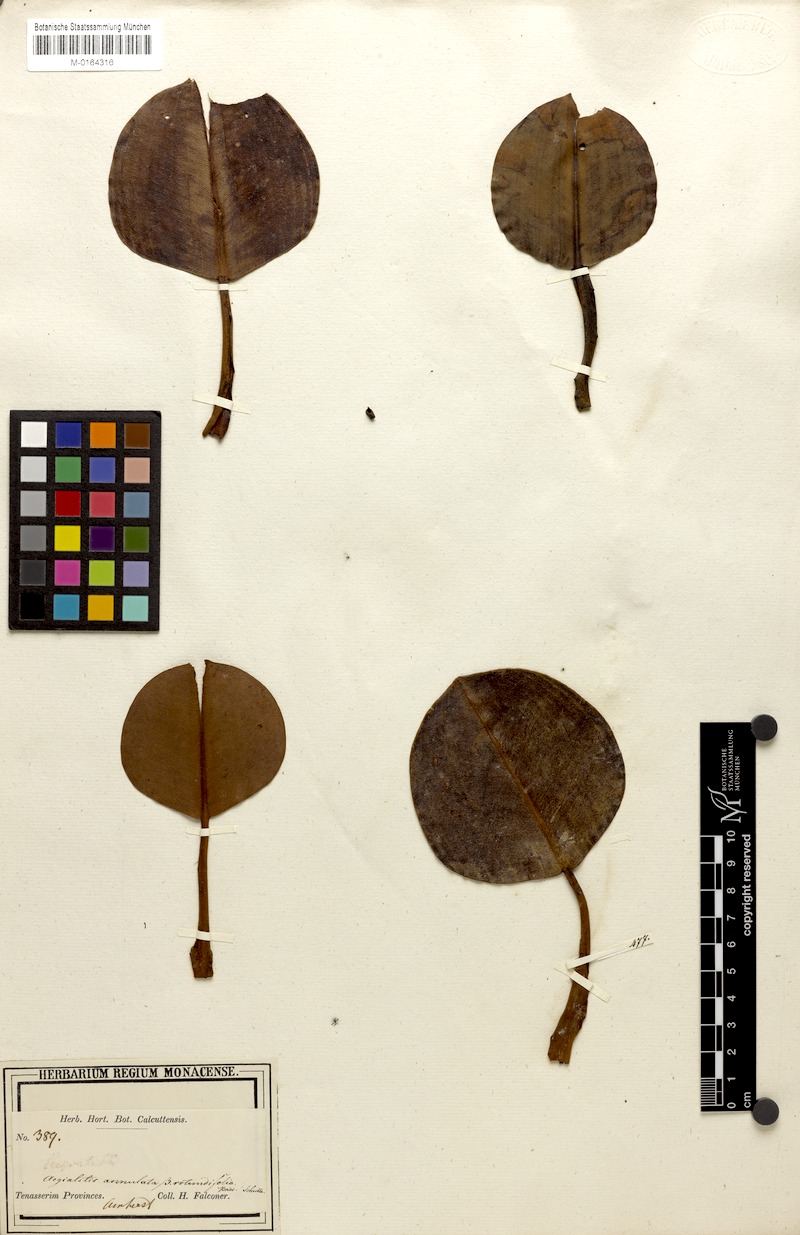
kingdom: Plantae
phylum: Tracheophyta
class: Magnoliopsida
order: Caryophyllales
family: Plumbaginaceae
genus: Aegialitis
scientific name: Aegialitis rotundifolia
